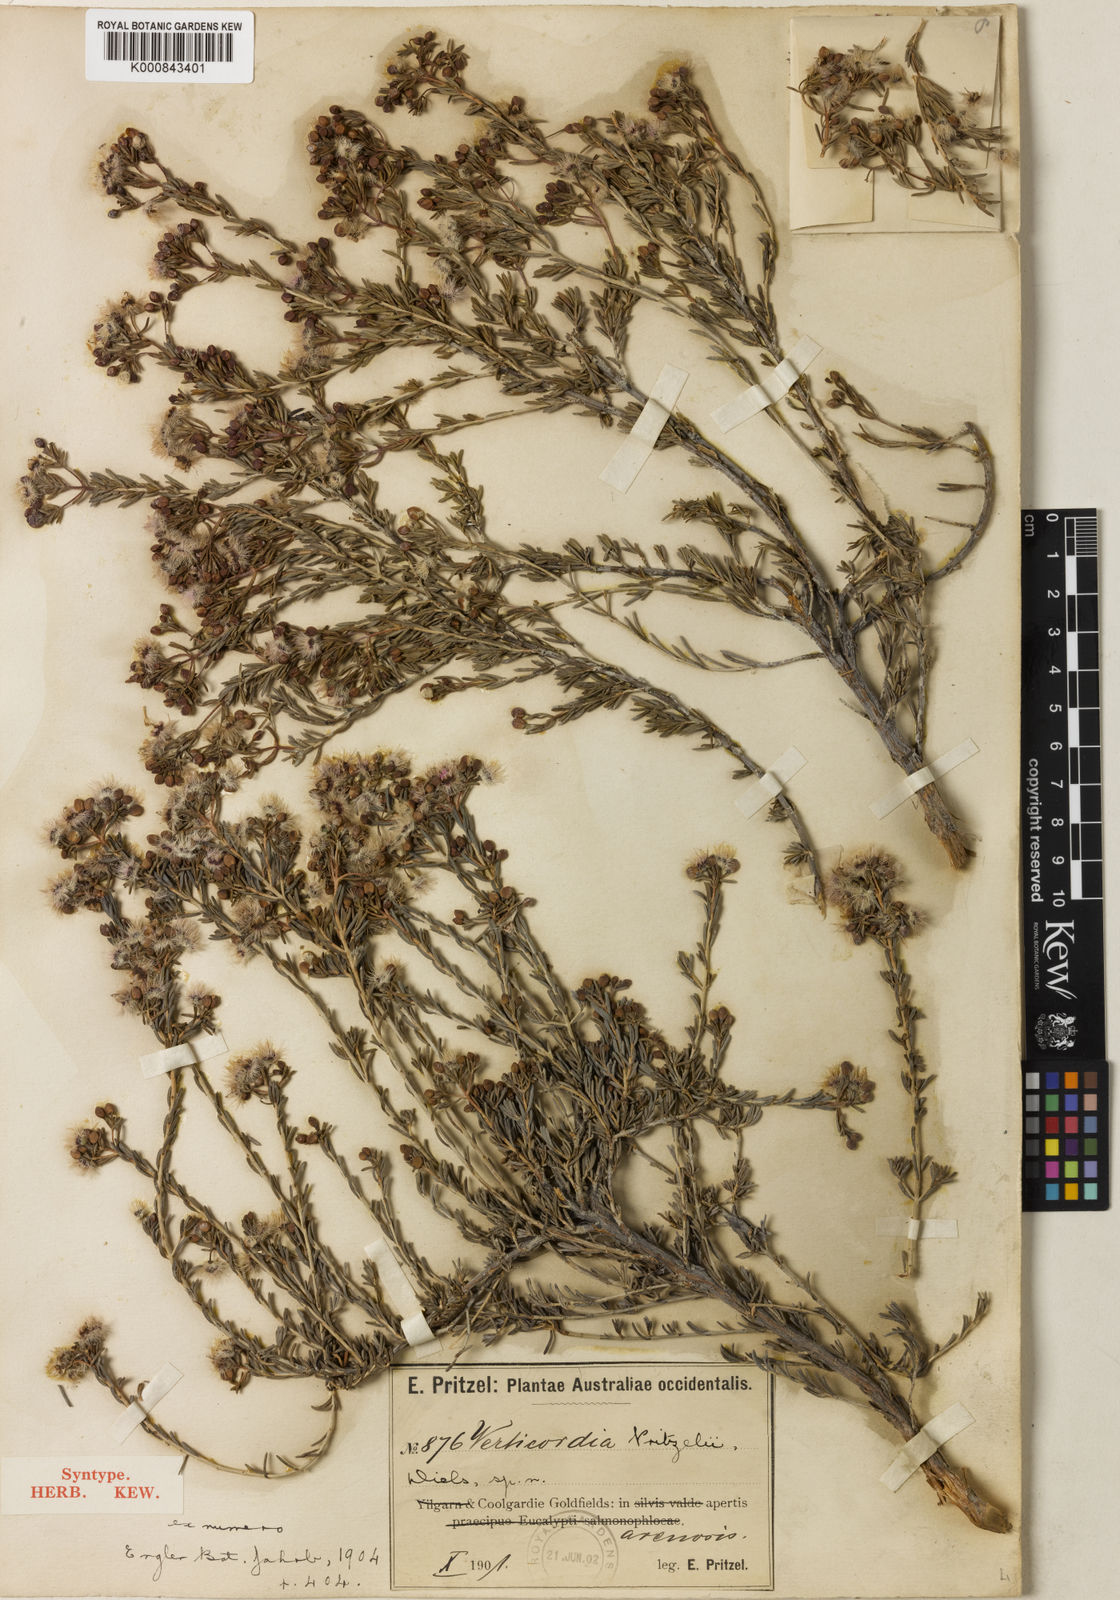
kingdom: Plantae
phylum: Tracheophyta
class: Magnoliopsida
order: Myrtales
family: Myrtaceae
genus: Verticordia
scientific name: Verticordia pritzelii
